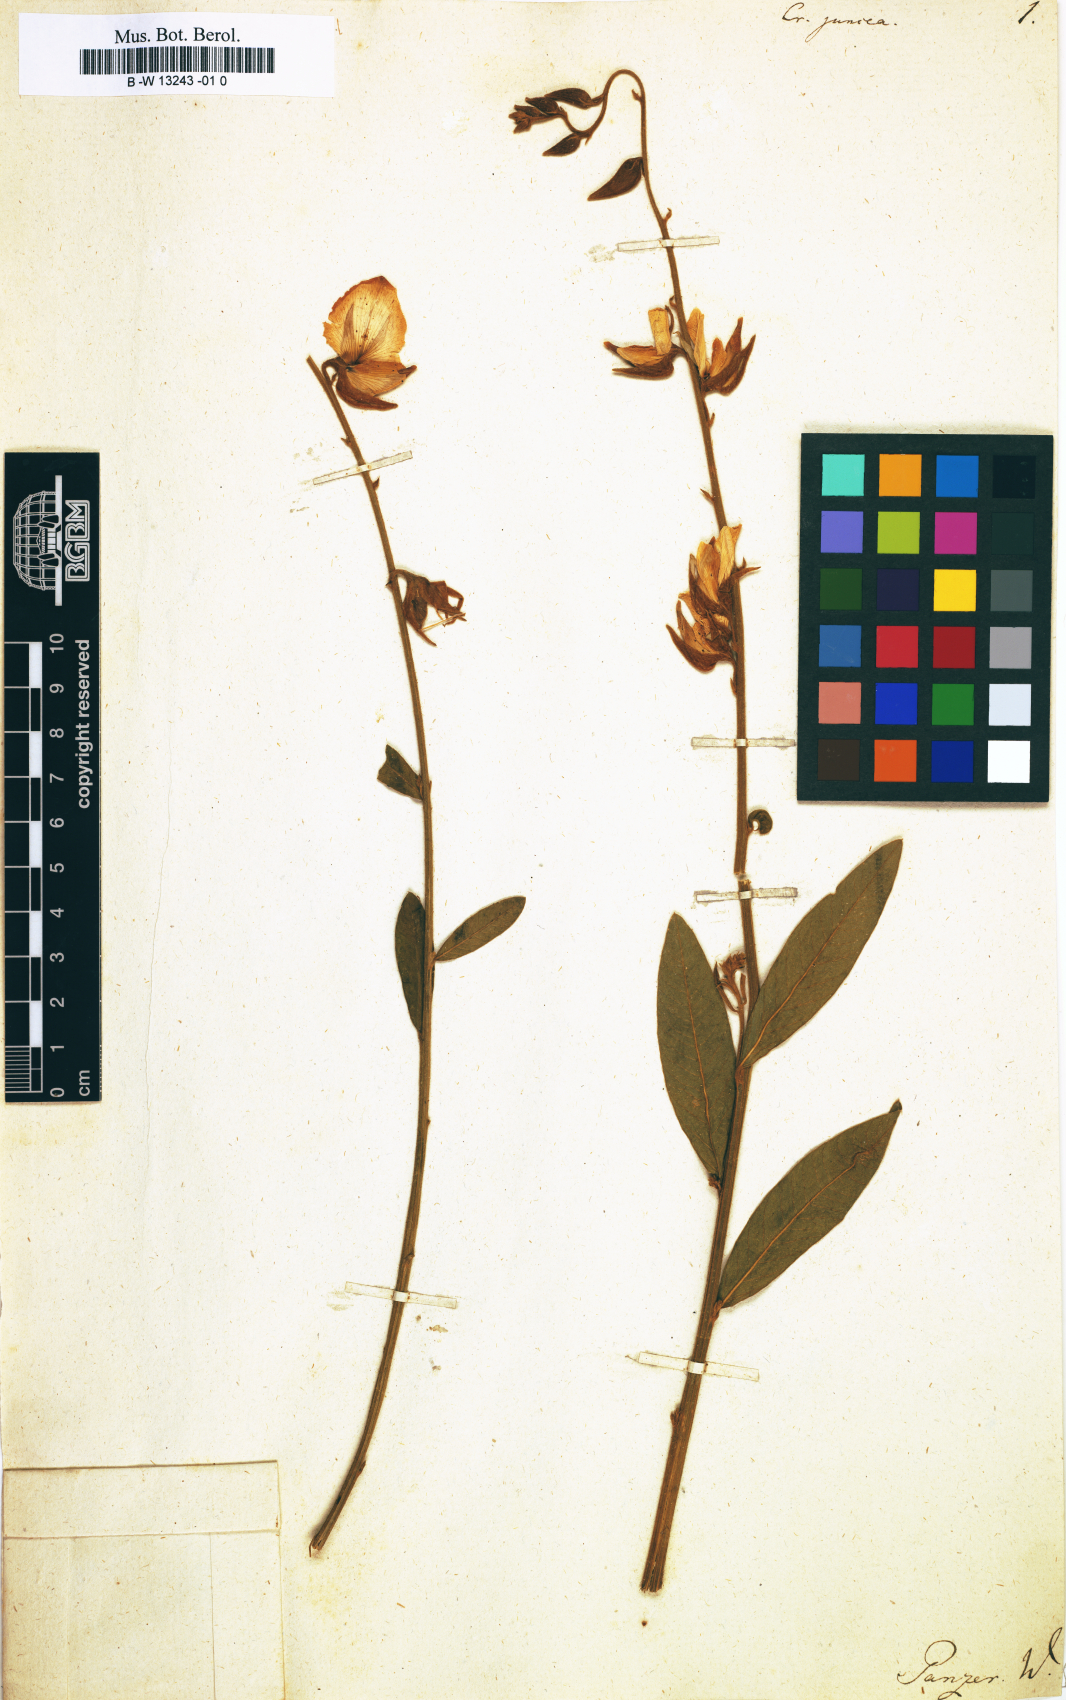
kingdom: Plantae
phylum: Tracheophyta
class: Magnoliopsida
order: Fabales
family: Fabaceae
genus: Crotalaria
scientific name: Crotalaria juncea
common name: Sunn hemp
